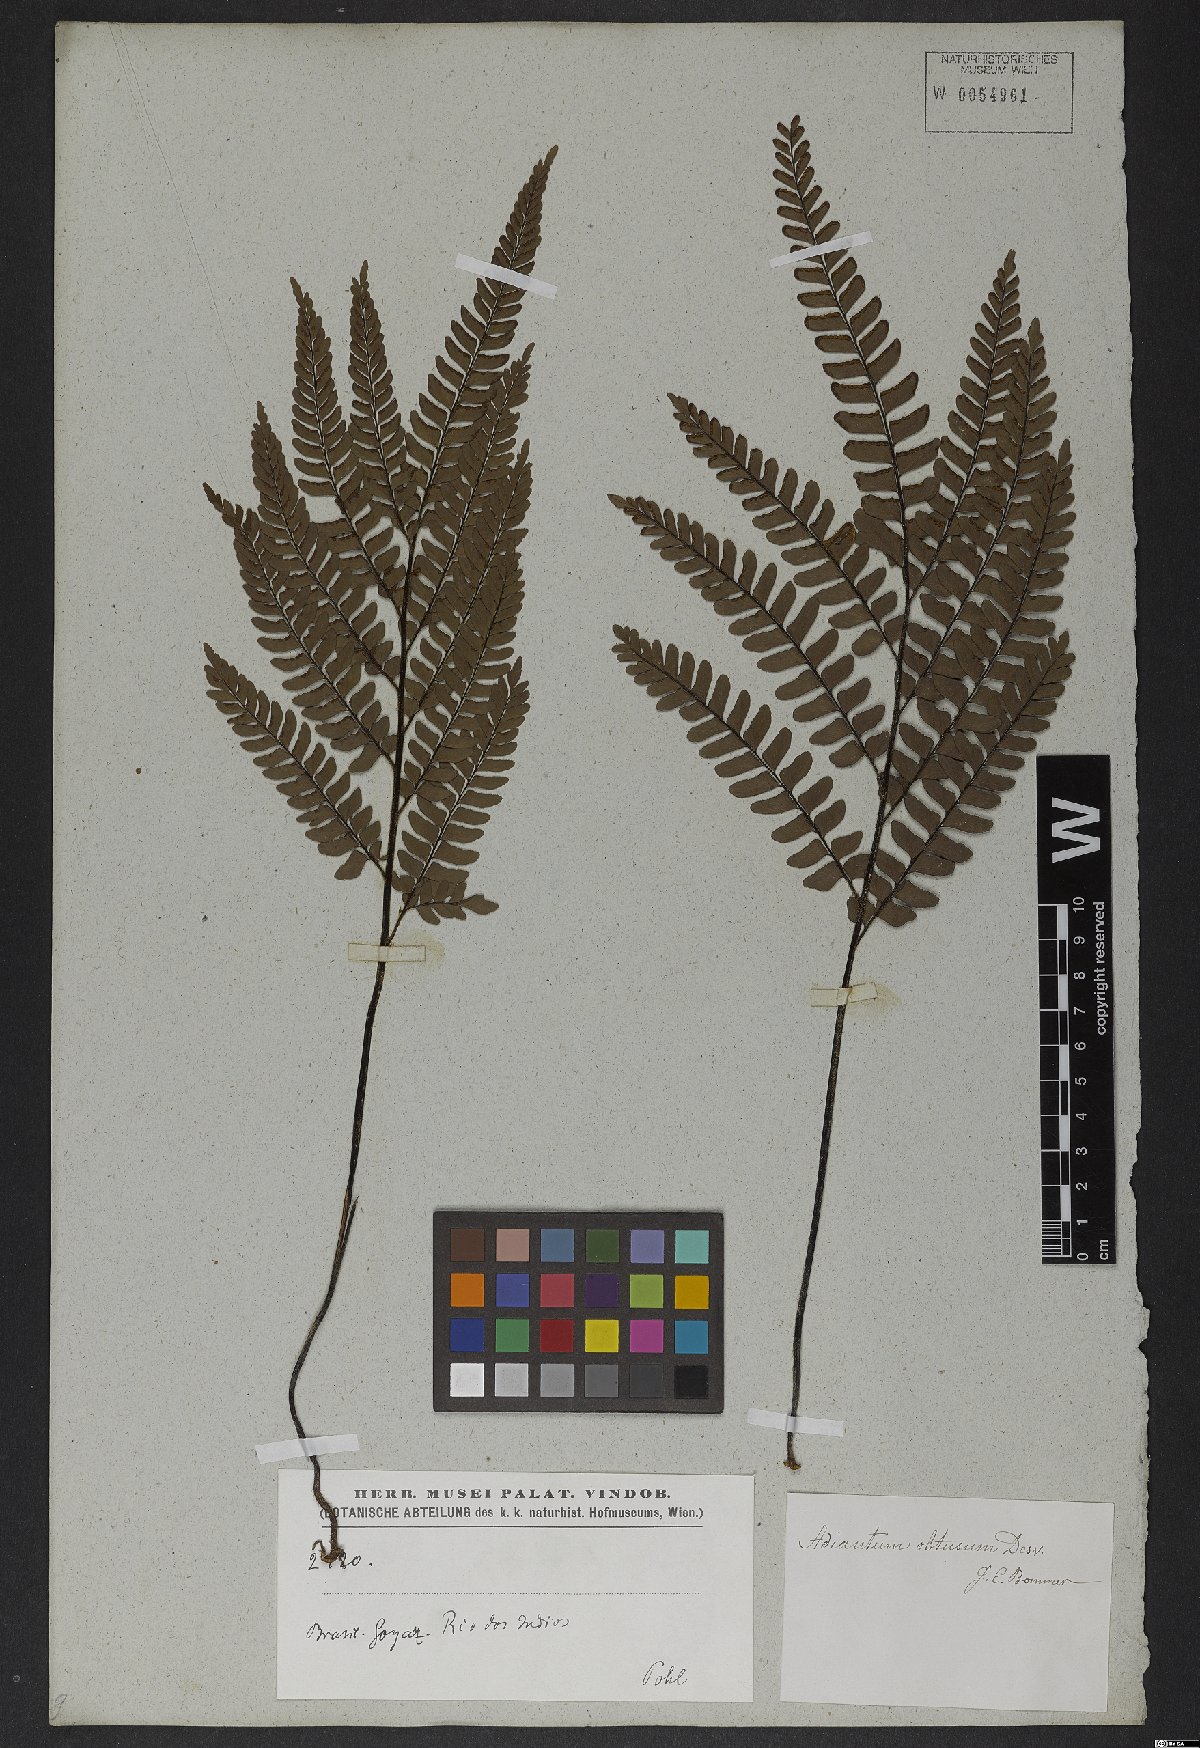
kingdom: Plantae
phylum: Tracheophyta
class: Polypodiopsida
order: Polypodiales
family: Pteridaceae
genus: Adiantum
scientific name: Adiantum serratodentatum
